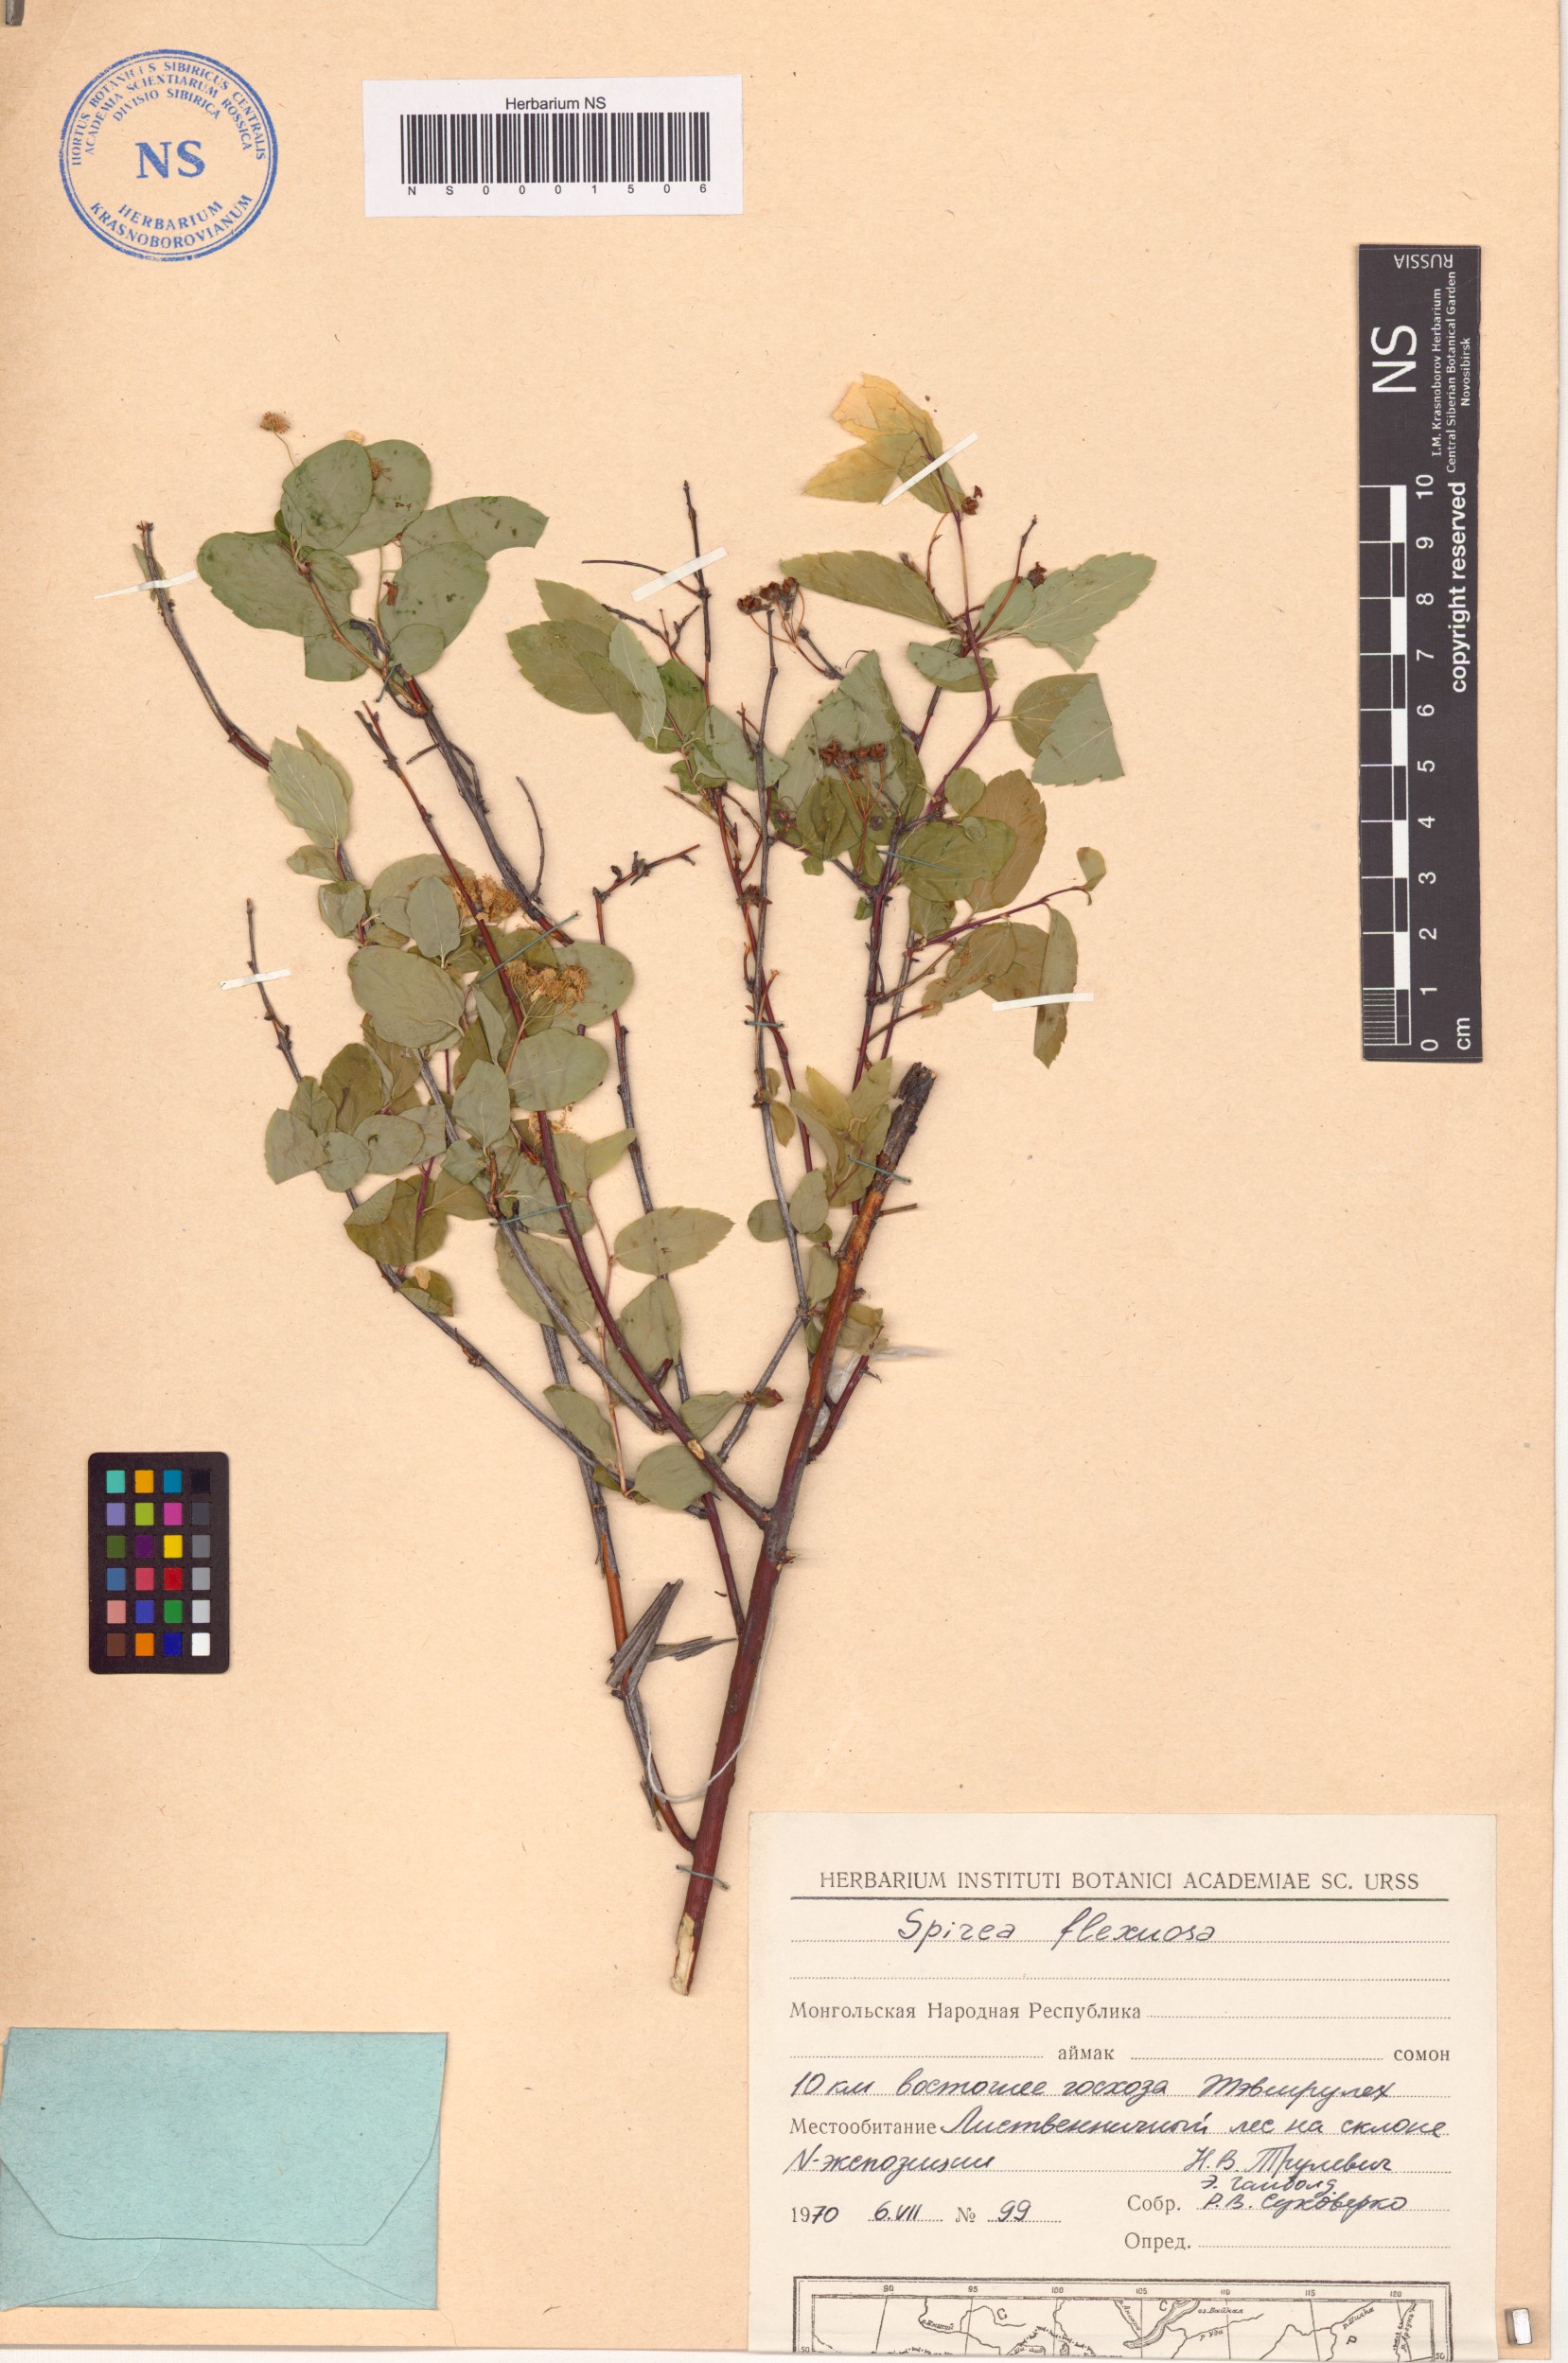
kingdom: Plantae
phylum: Tracheophyta
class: Magnoliopsida
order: Rosales
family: Rosaceae
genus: Spiraea
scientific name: Spiraea flexuosa
